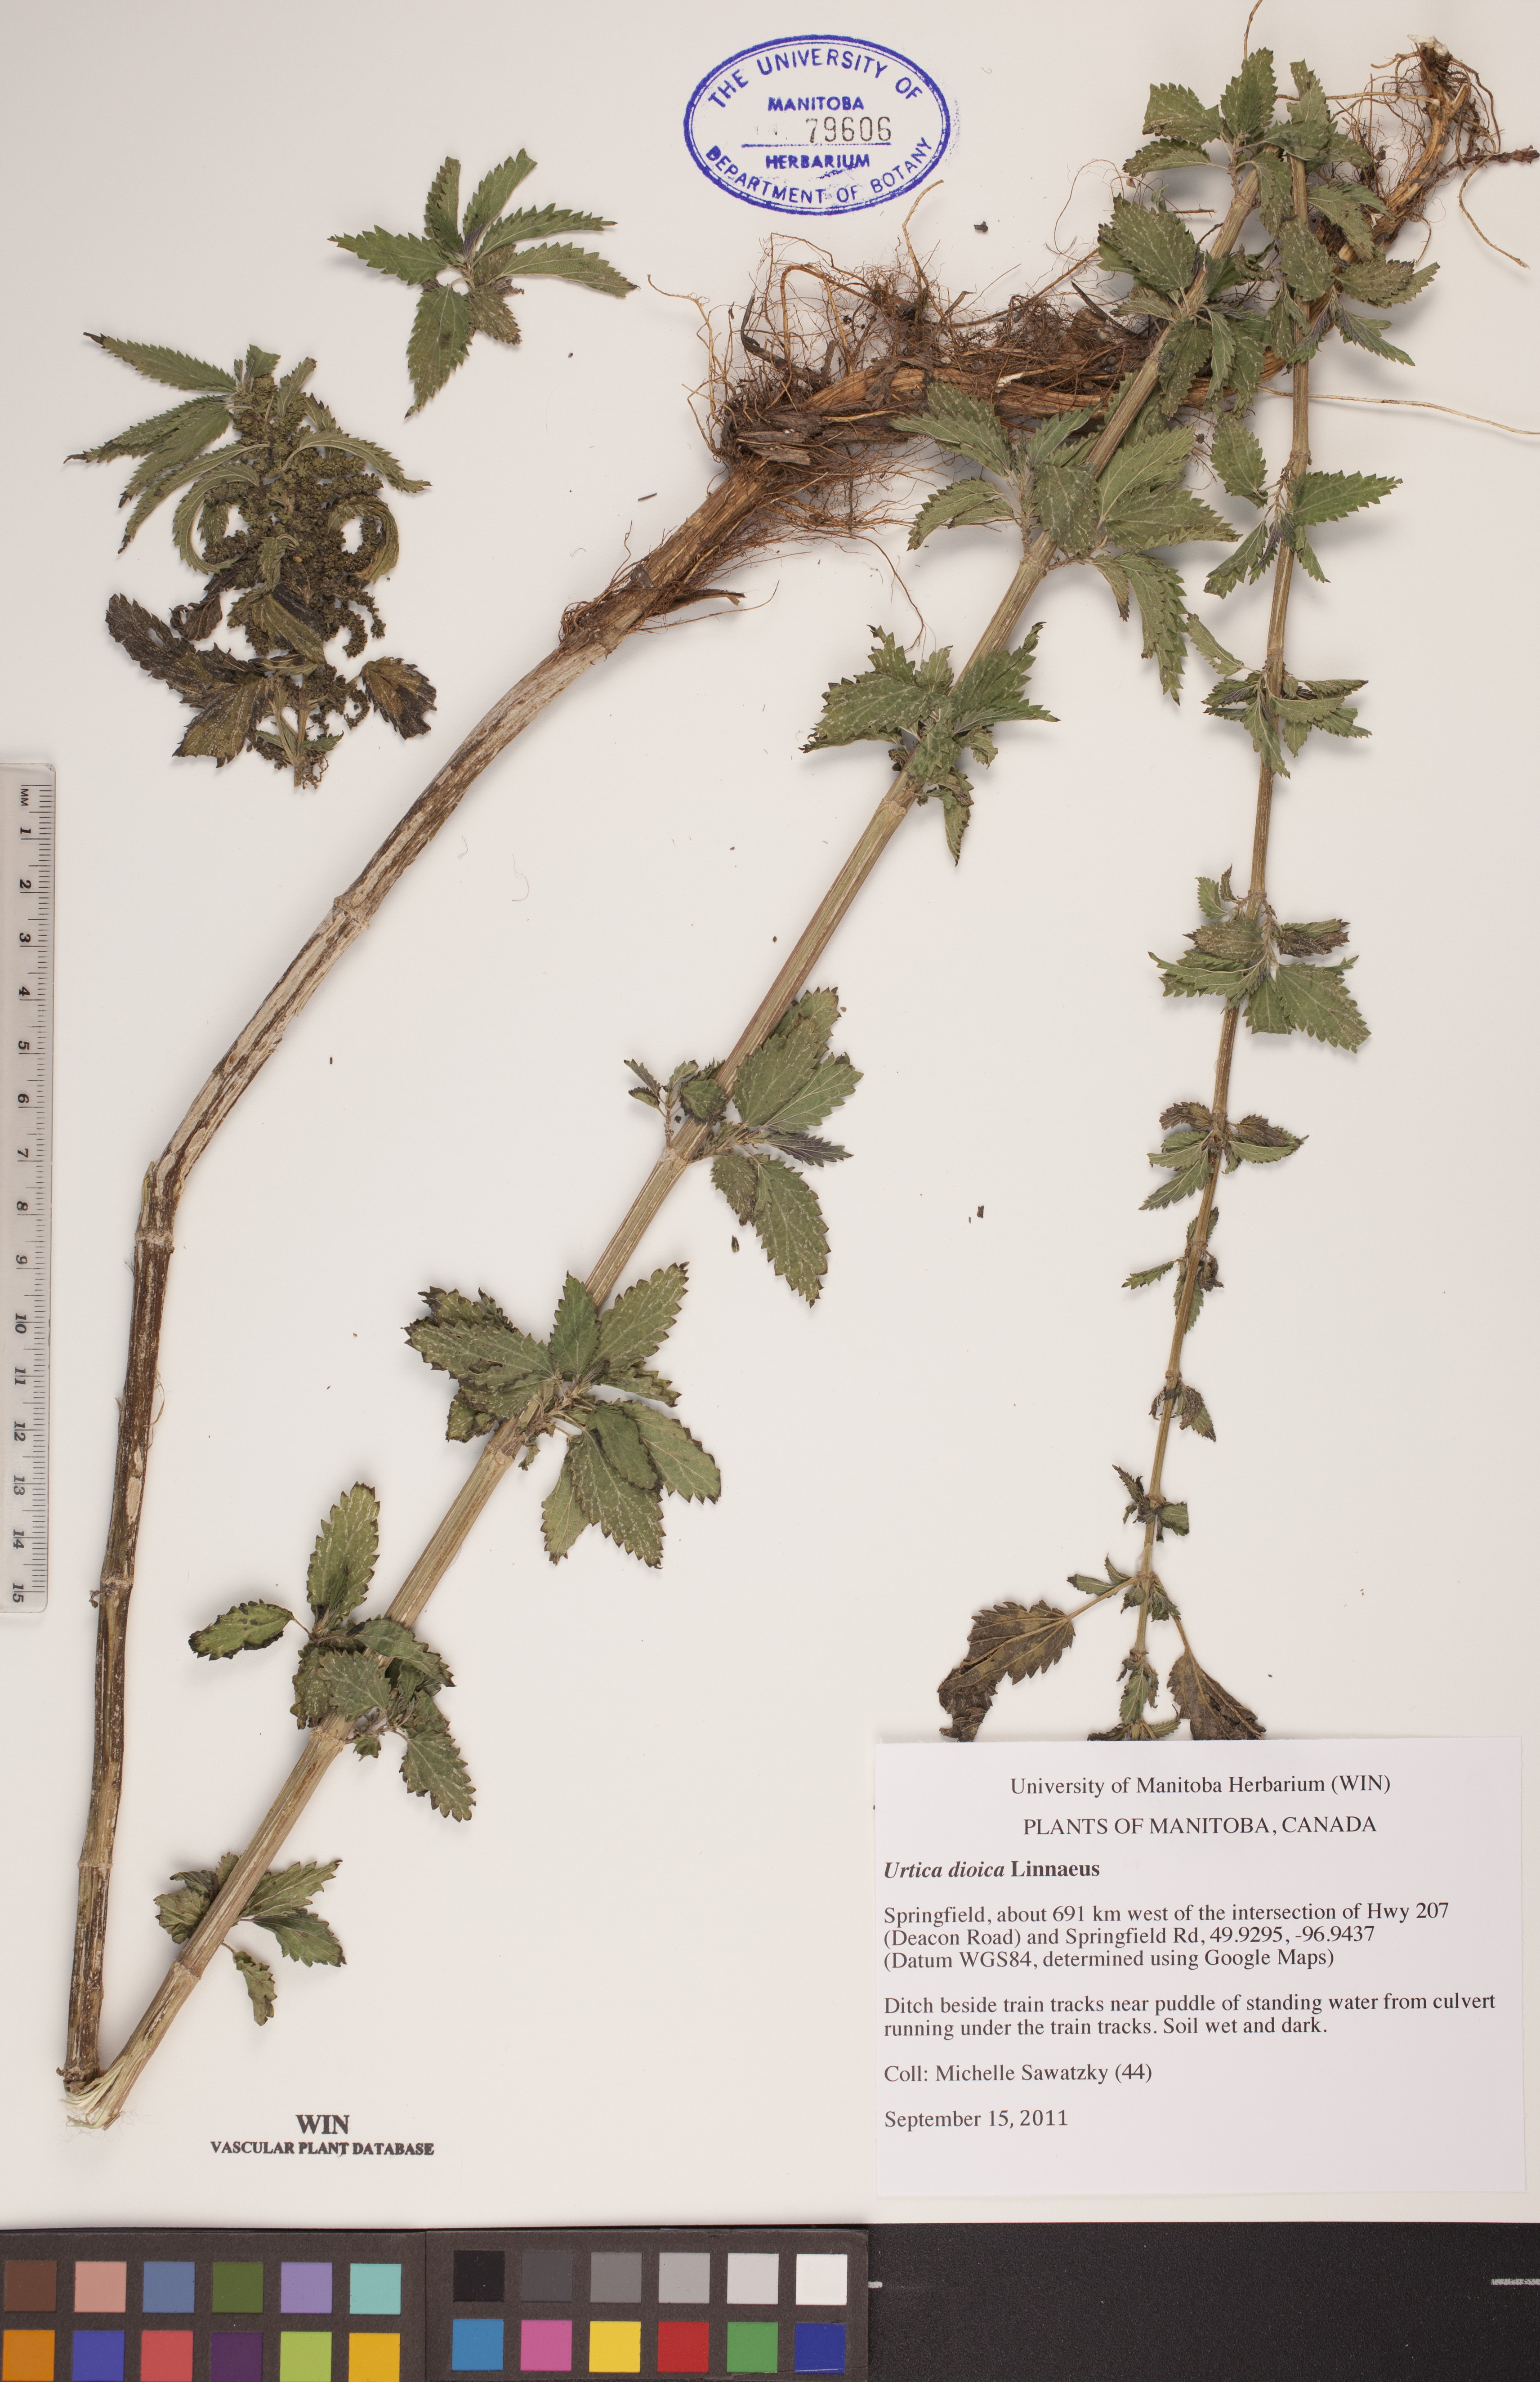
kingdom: Plantae
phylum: Tracheophyta
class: Magnoliopsida
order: Rosales
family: Urticaceae
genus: Urtica
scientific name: Urtica dioica
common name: Common nettle
